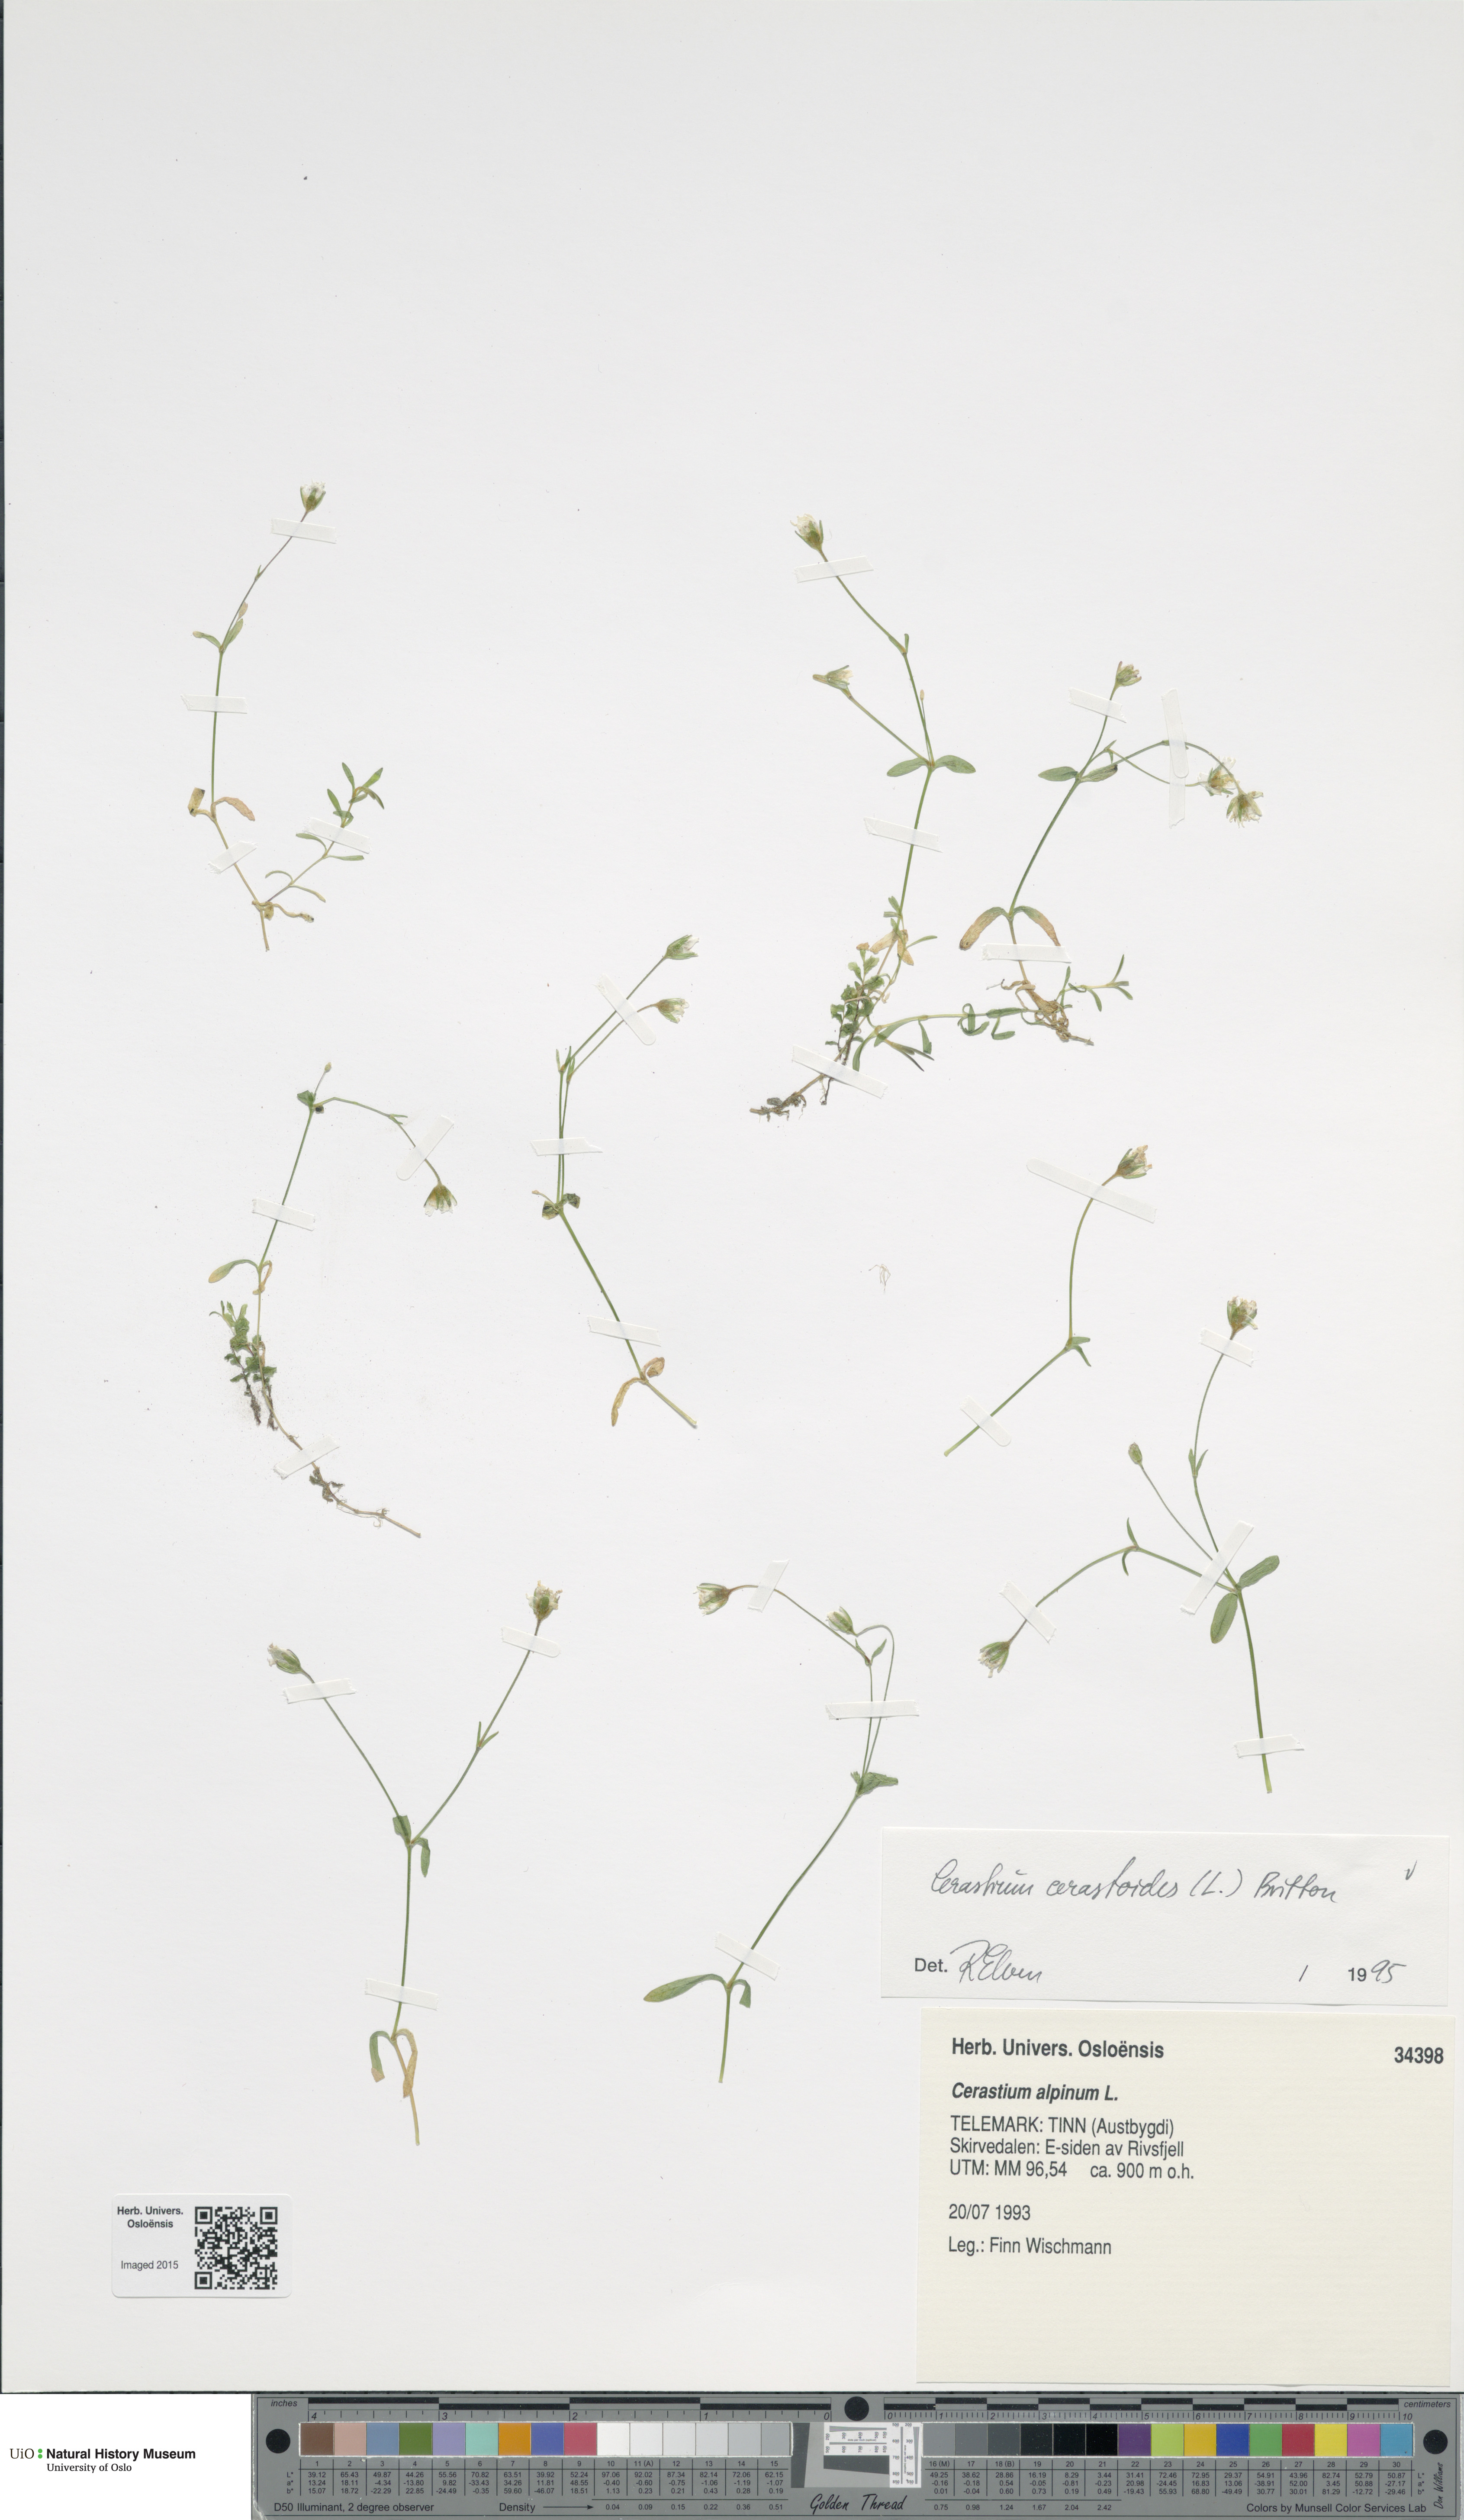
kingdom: Plantae
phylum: Tracheophyta
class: Magnoliopsida
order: Caryophyllales
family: Caryophyllaceae
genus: Dichodon
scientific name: Dichodon cerastoides
